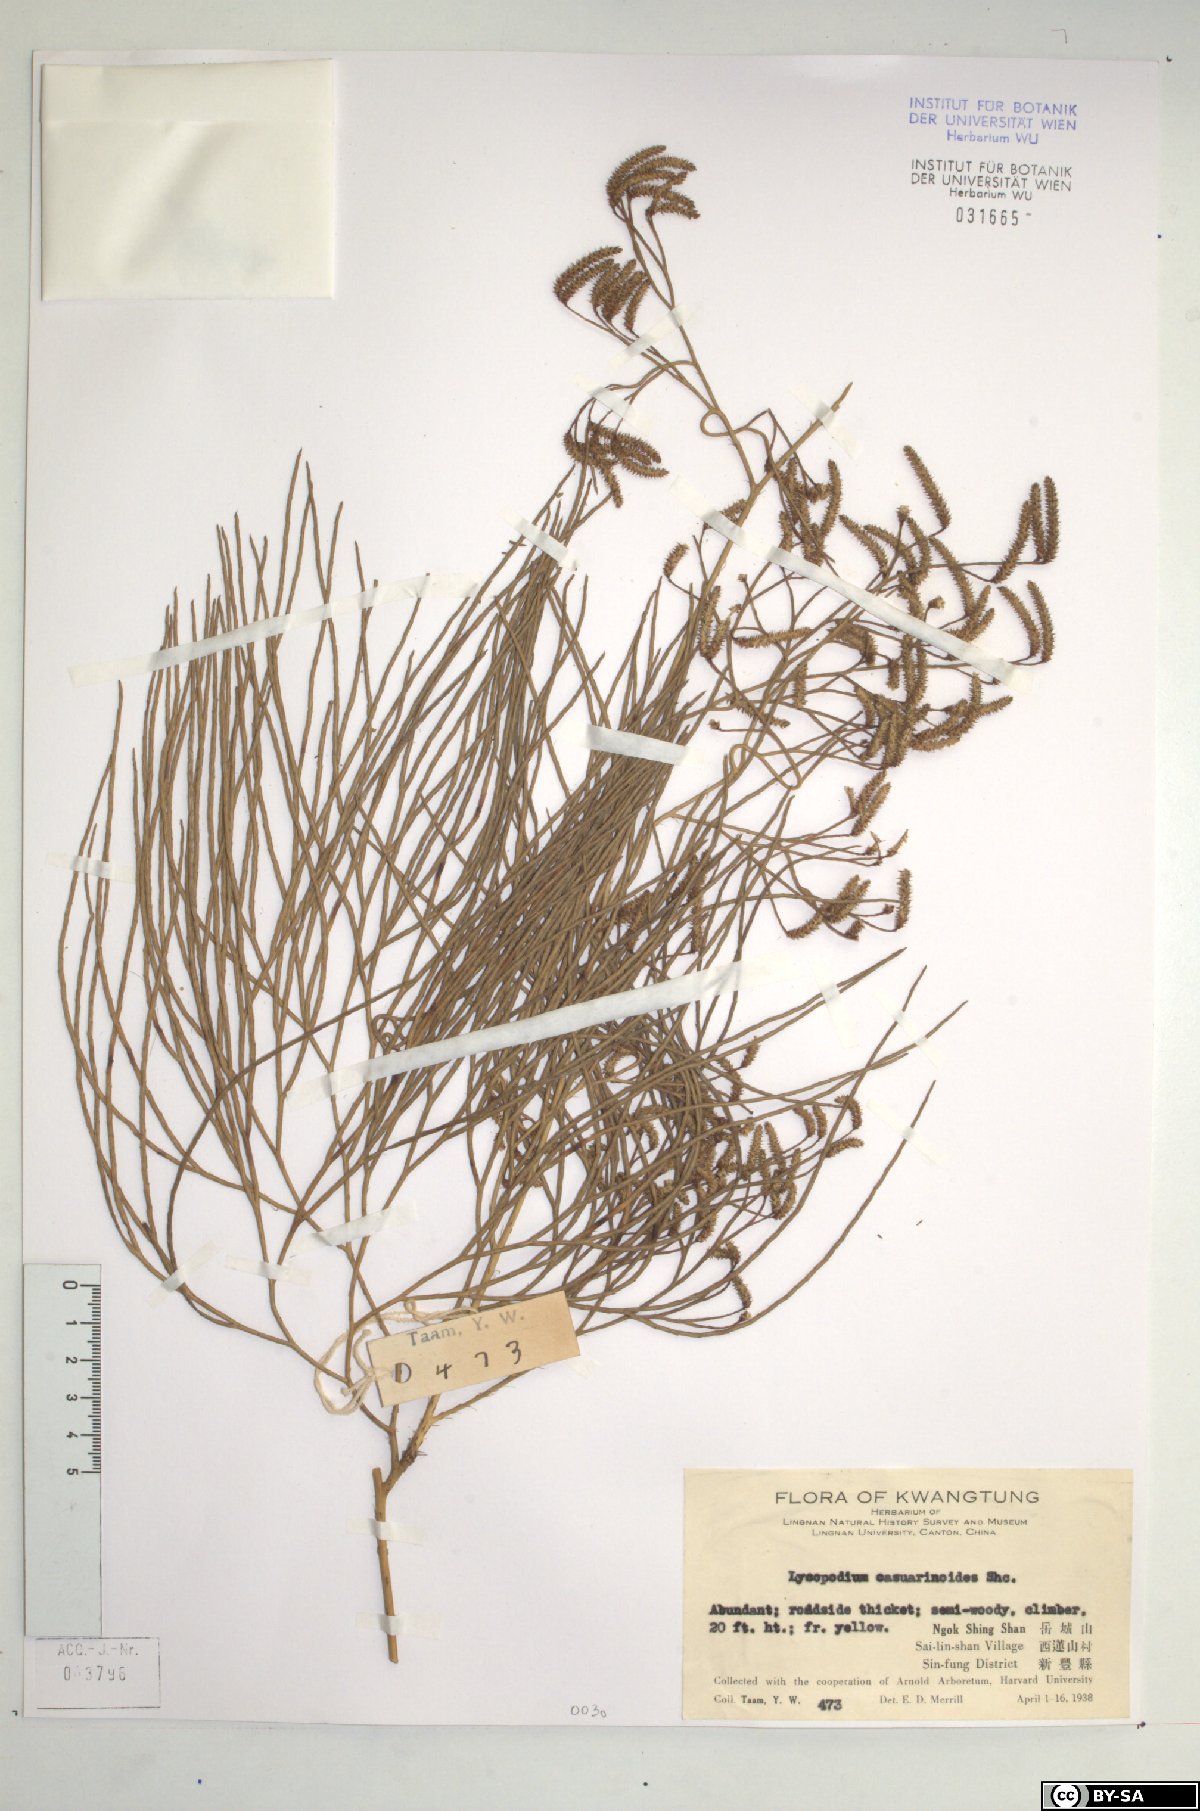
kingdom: Plantae
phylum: Tracheophyta
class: Lycopodiopsida
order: Lycopodiales
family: Lycopodiaceae
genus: Lycopodiastrum
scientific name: Lycopodiastrum casuarinoides
